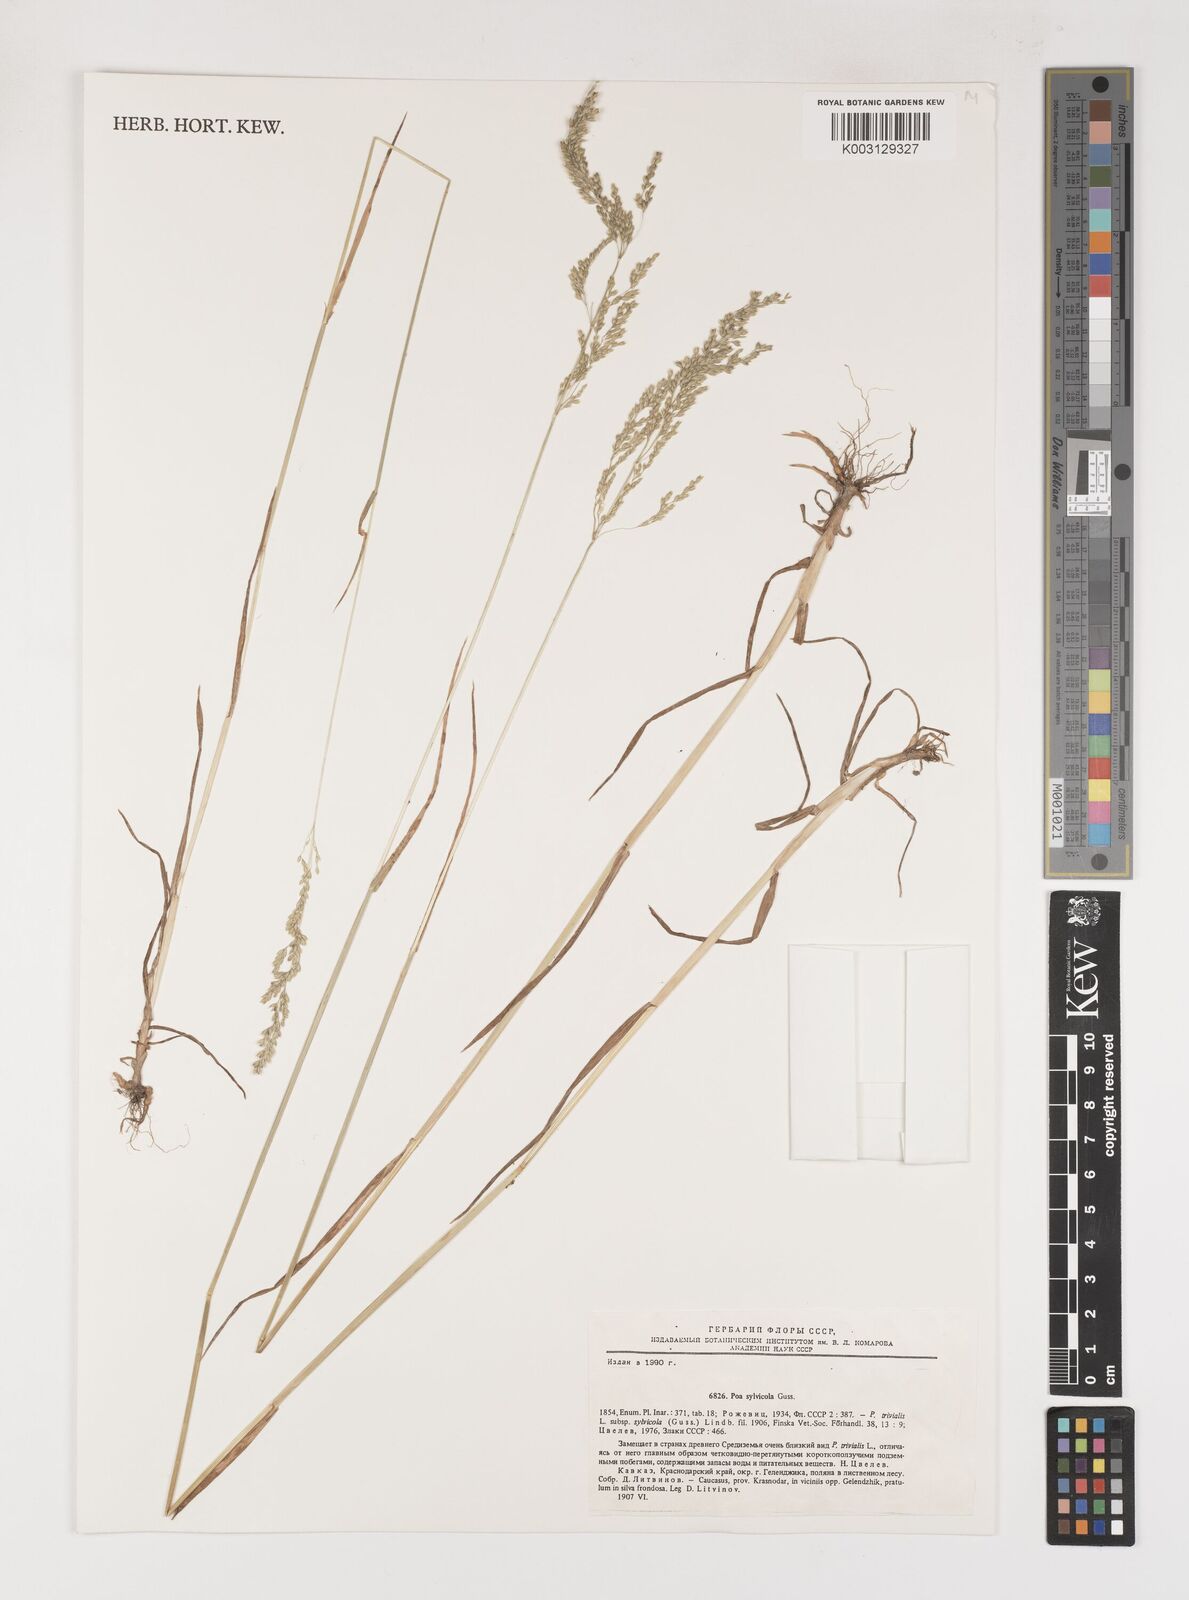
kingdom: Plantae
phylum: Tracheophyta
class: Liliopsida
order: Poales
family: Poaceae
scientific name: Poaceae
